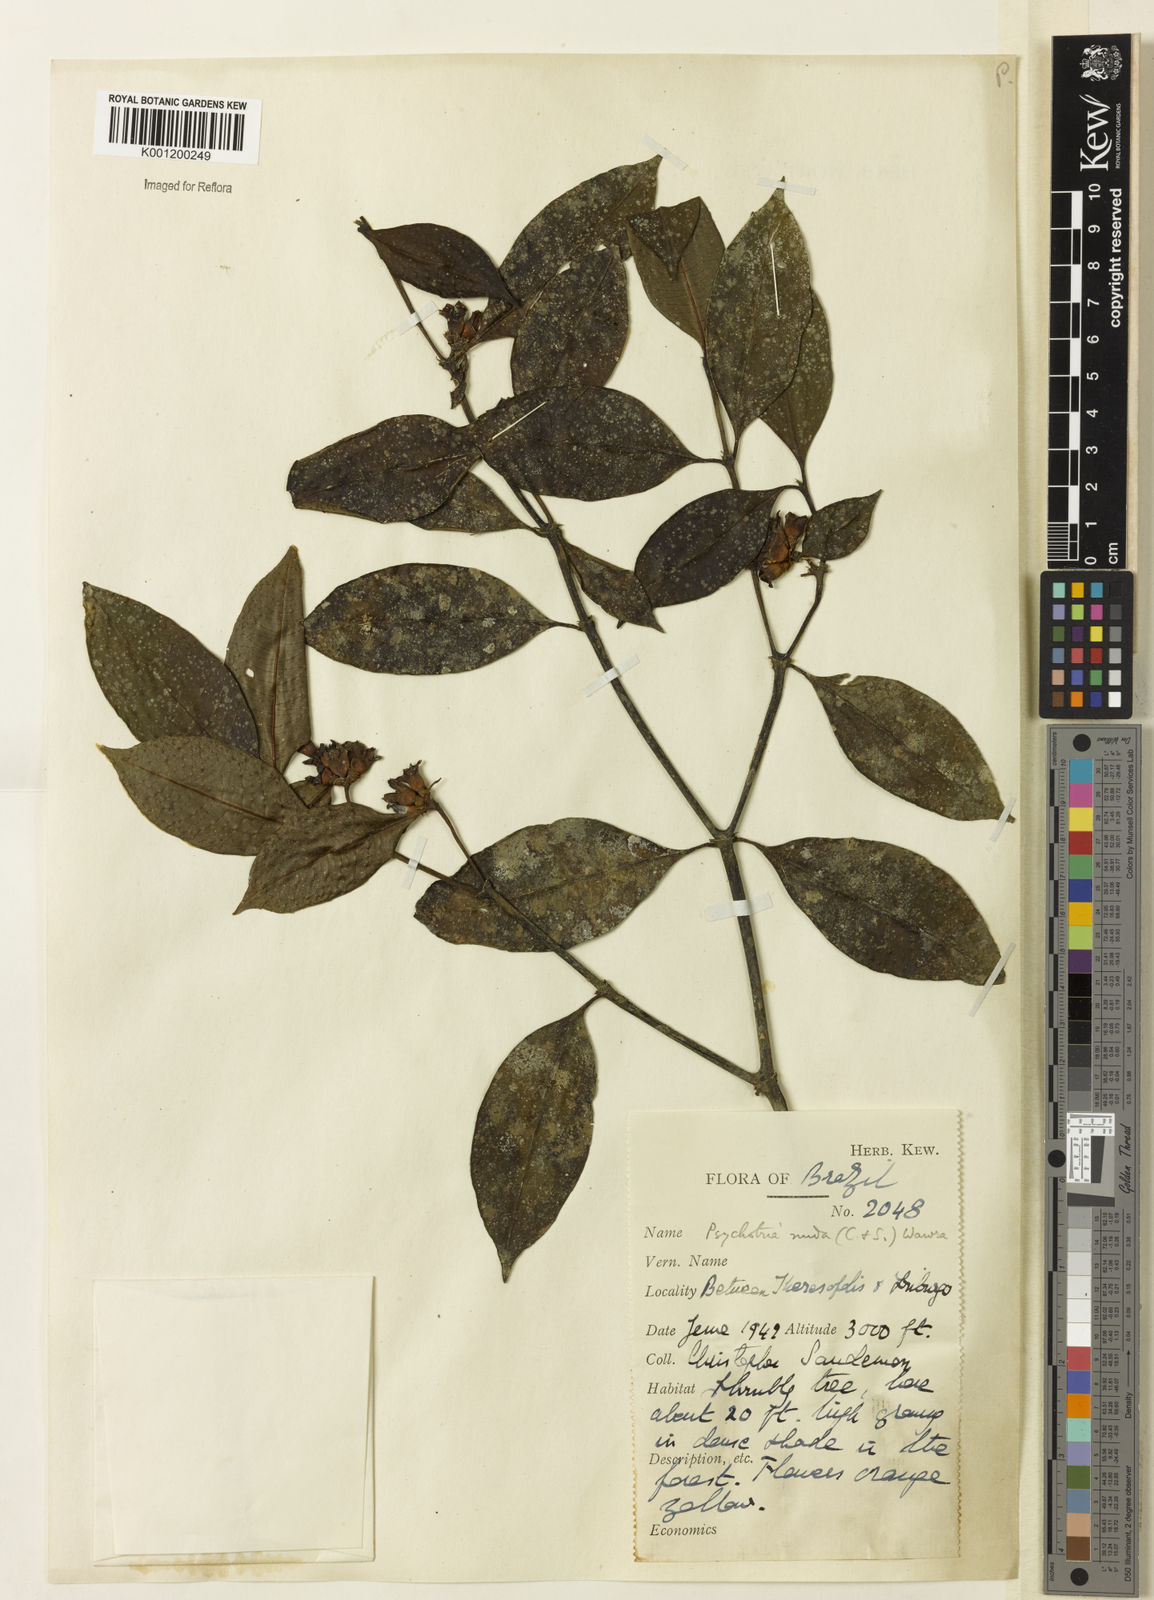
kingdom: Plantae
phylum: Tracheophyta
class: Magnoliopsida
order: Gentianales
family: Rubiaceae
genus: Psychotria
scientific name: Psychotria
